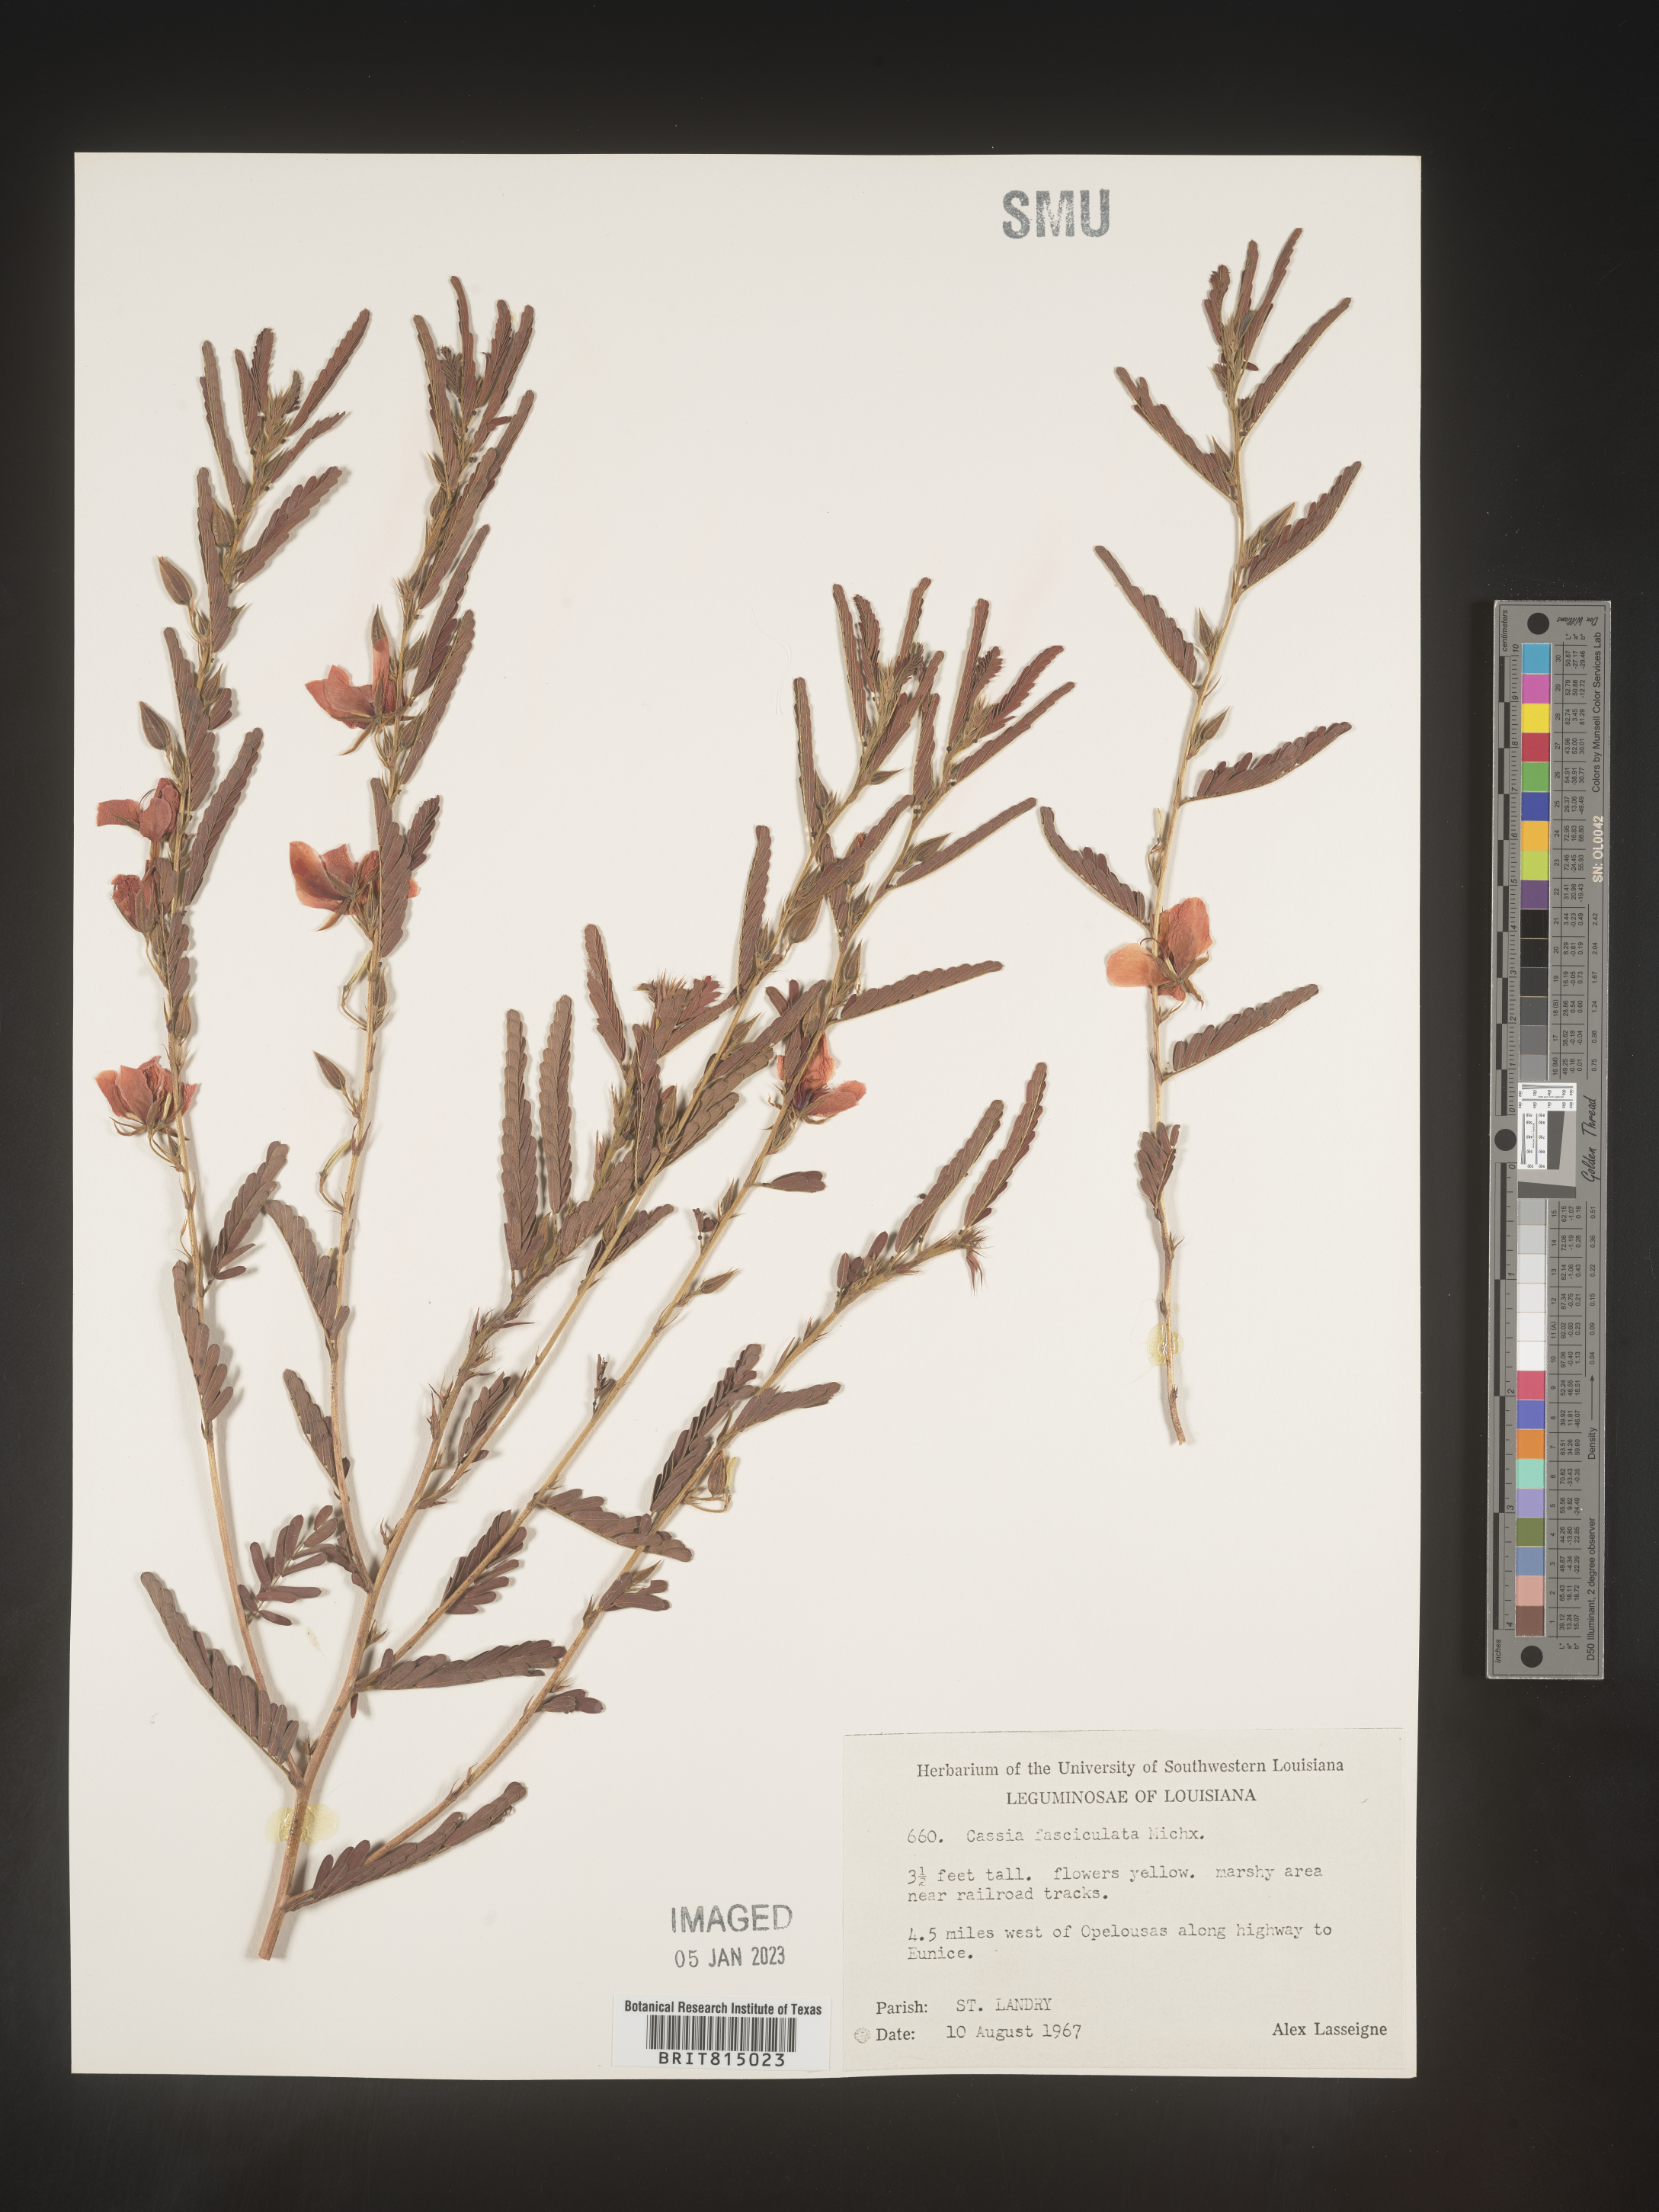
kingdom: Plantae
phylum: Tracheophyta
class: Magnoliopsida
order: Fabales
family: Fabaceae
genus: Chamaecrista
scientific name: Chamaecrista fasciculata
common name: Golden cassia
